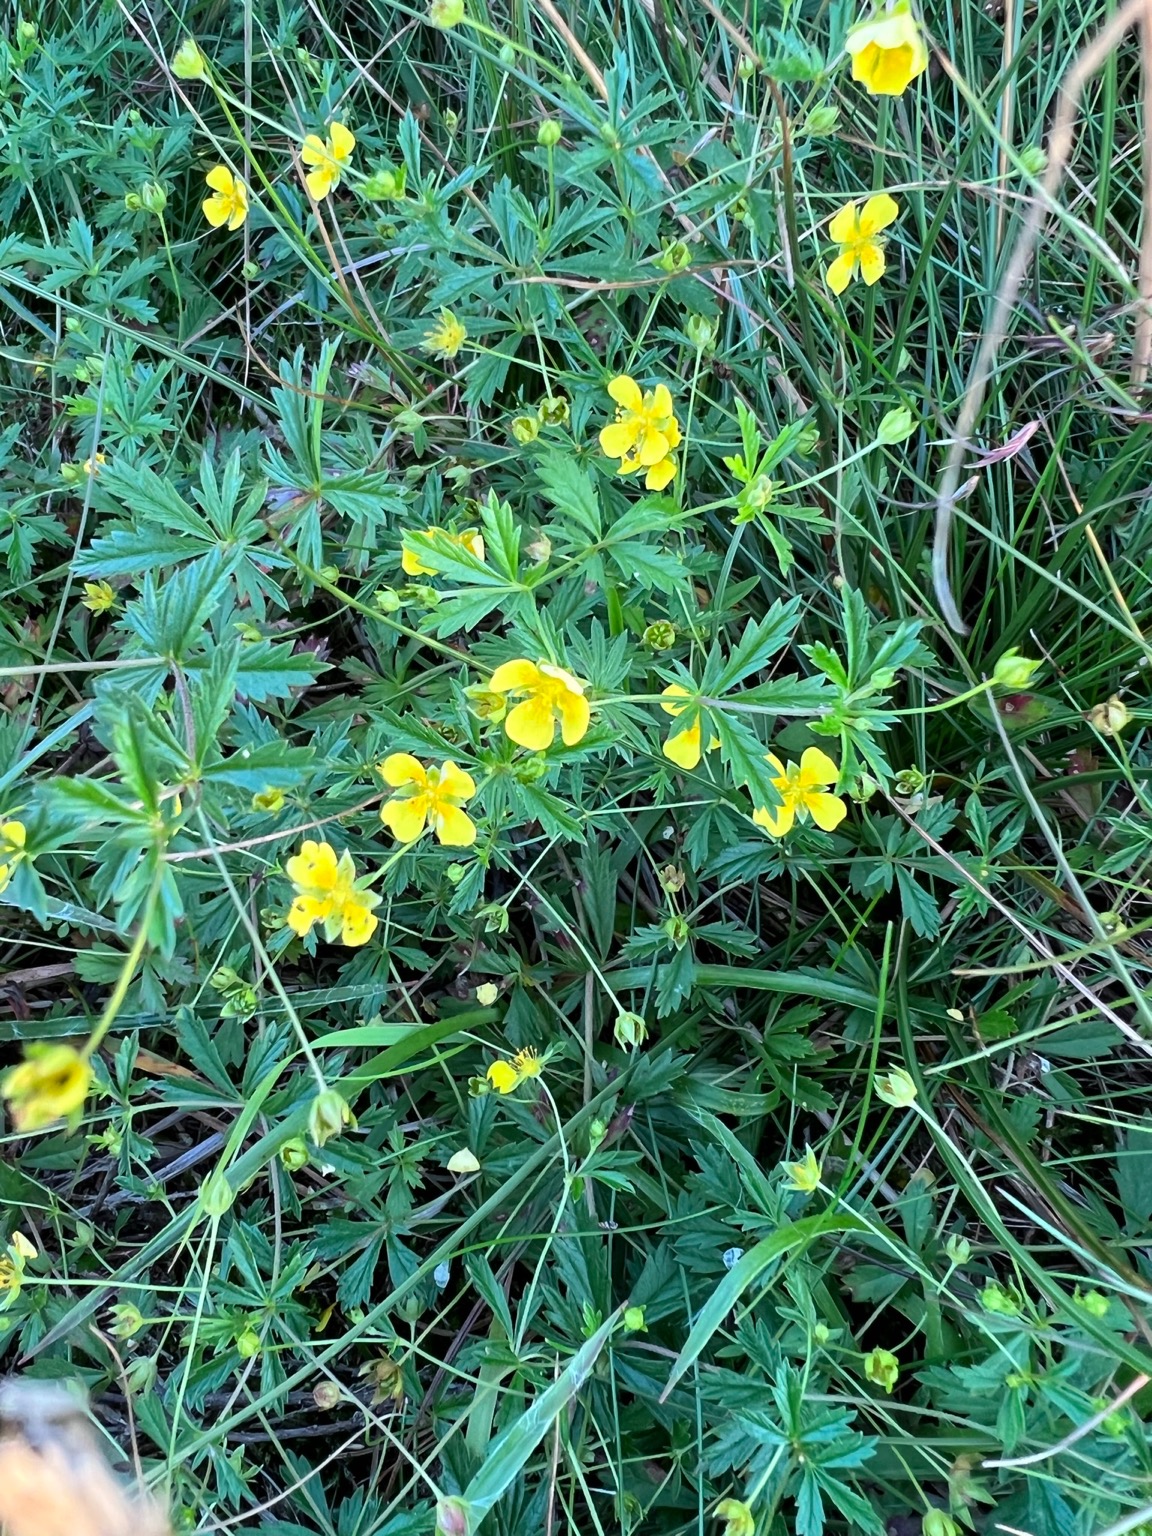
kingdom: Plantae
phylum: Tracheophyta
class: Magnoliopsida
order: Rosales
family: Rosaceae
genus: Potentilla
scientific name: Potentilla erecta
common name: Tormentil
